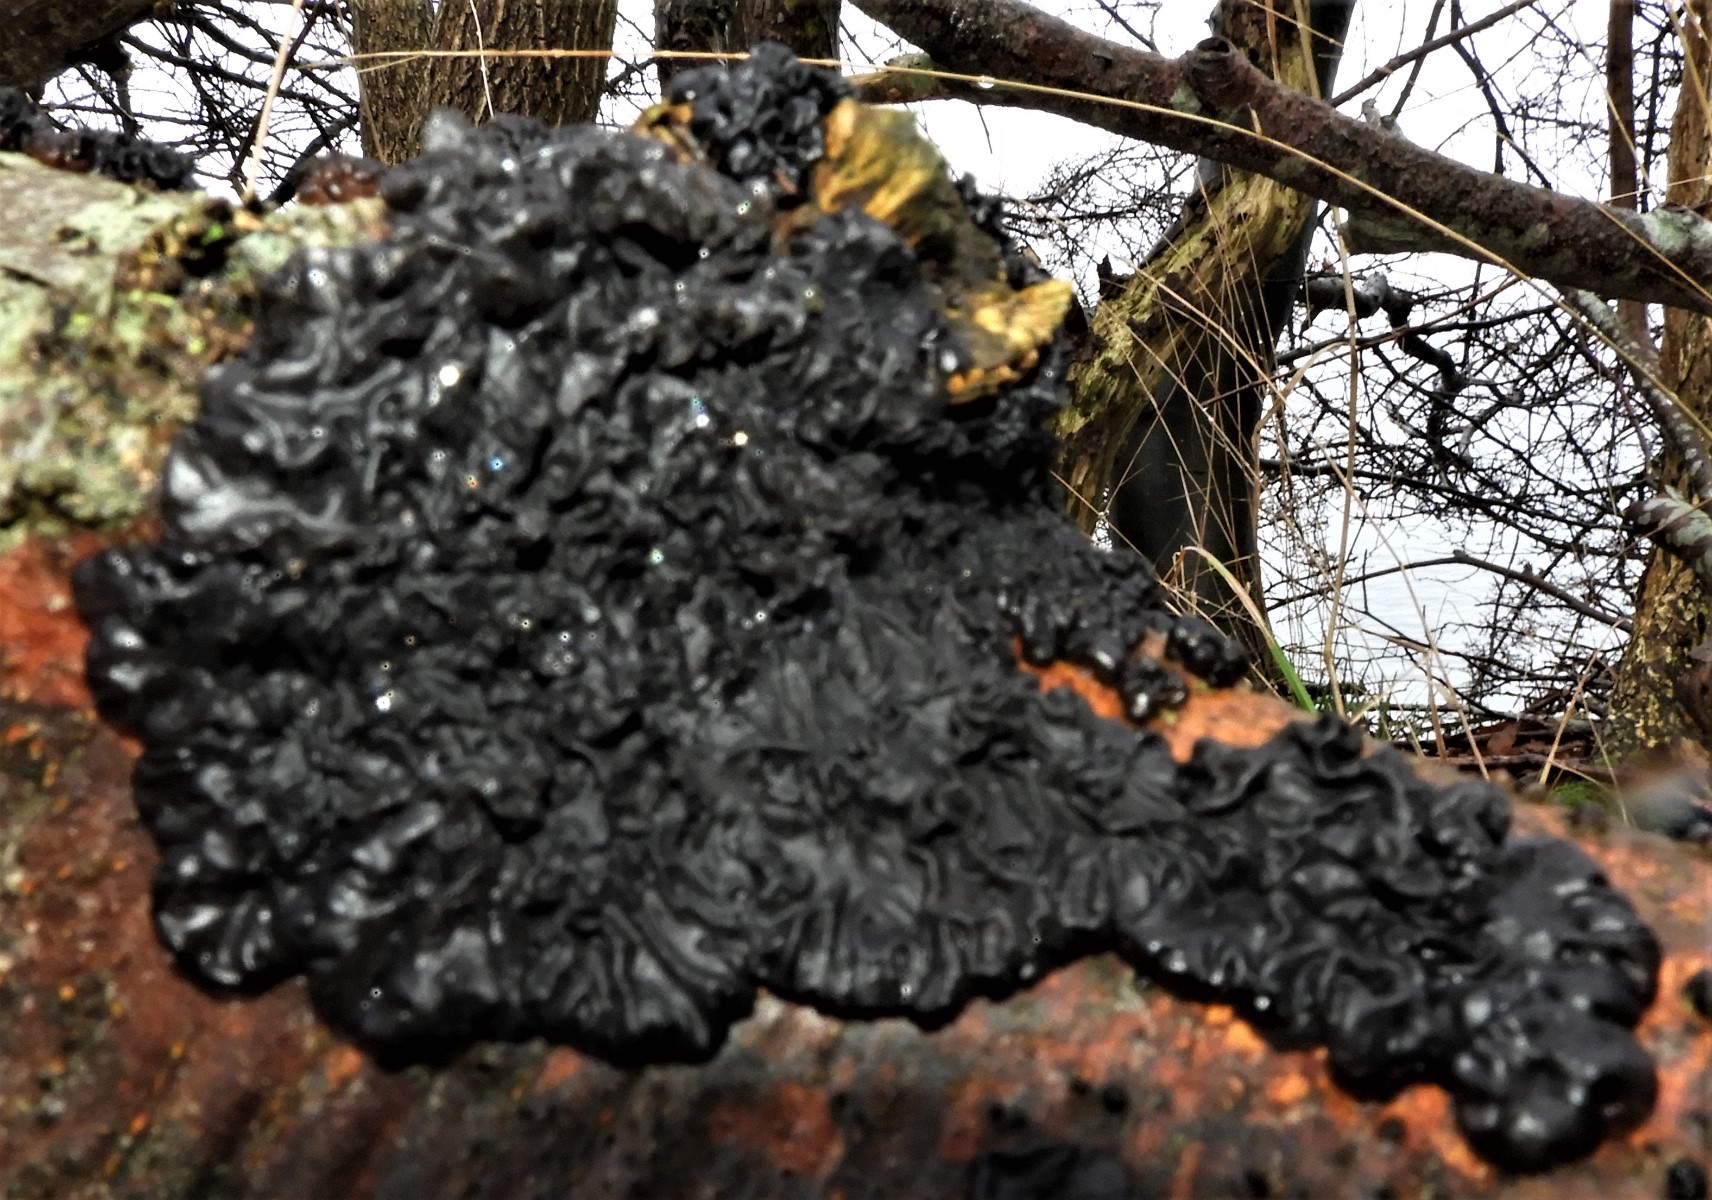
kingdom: Fungi
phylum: Basidiomycota
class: Agaricomycetes
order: Auriculariales
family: Auriculariaceae
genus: Exidia
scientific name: Exidia nigricans
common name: almindelig bævretop
